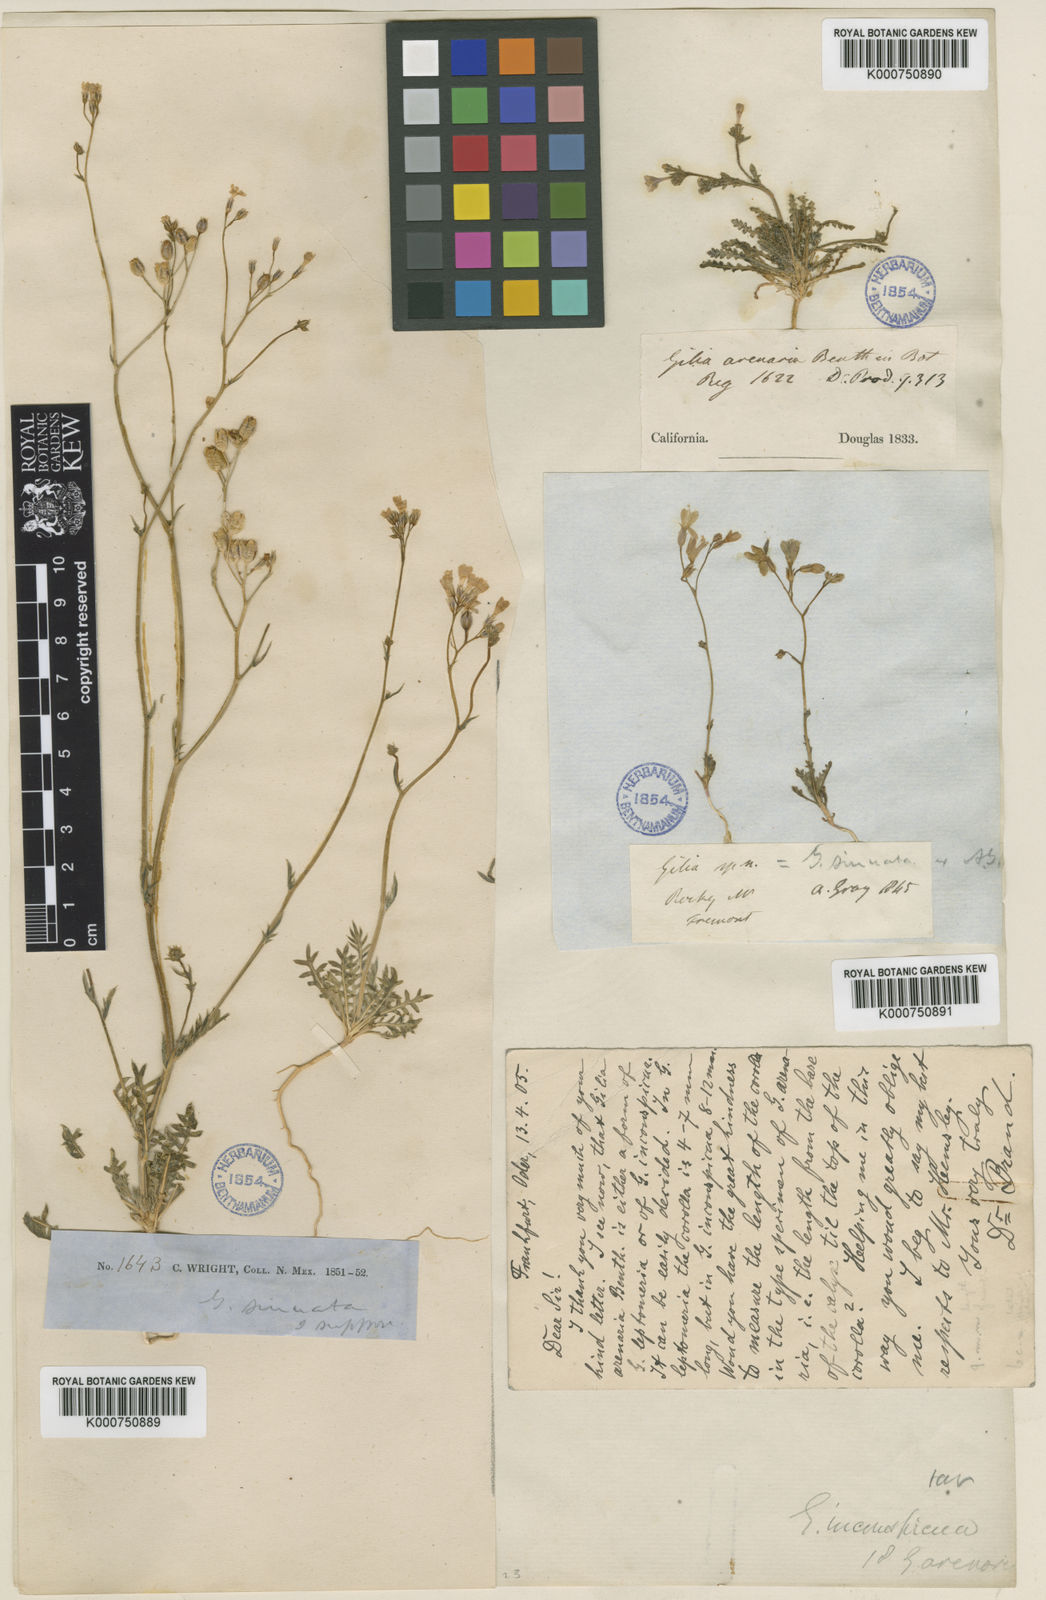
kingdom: Plantae
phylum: Tracheophyta
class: Magnoliopsida
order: Ericales
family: Polemoniaceae
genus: Gilia
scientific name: Gilia tenuiflora
